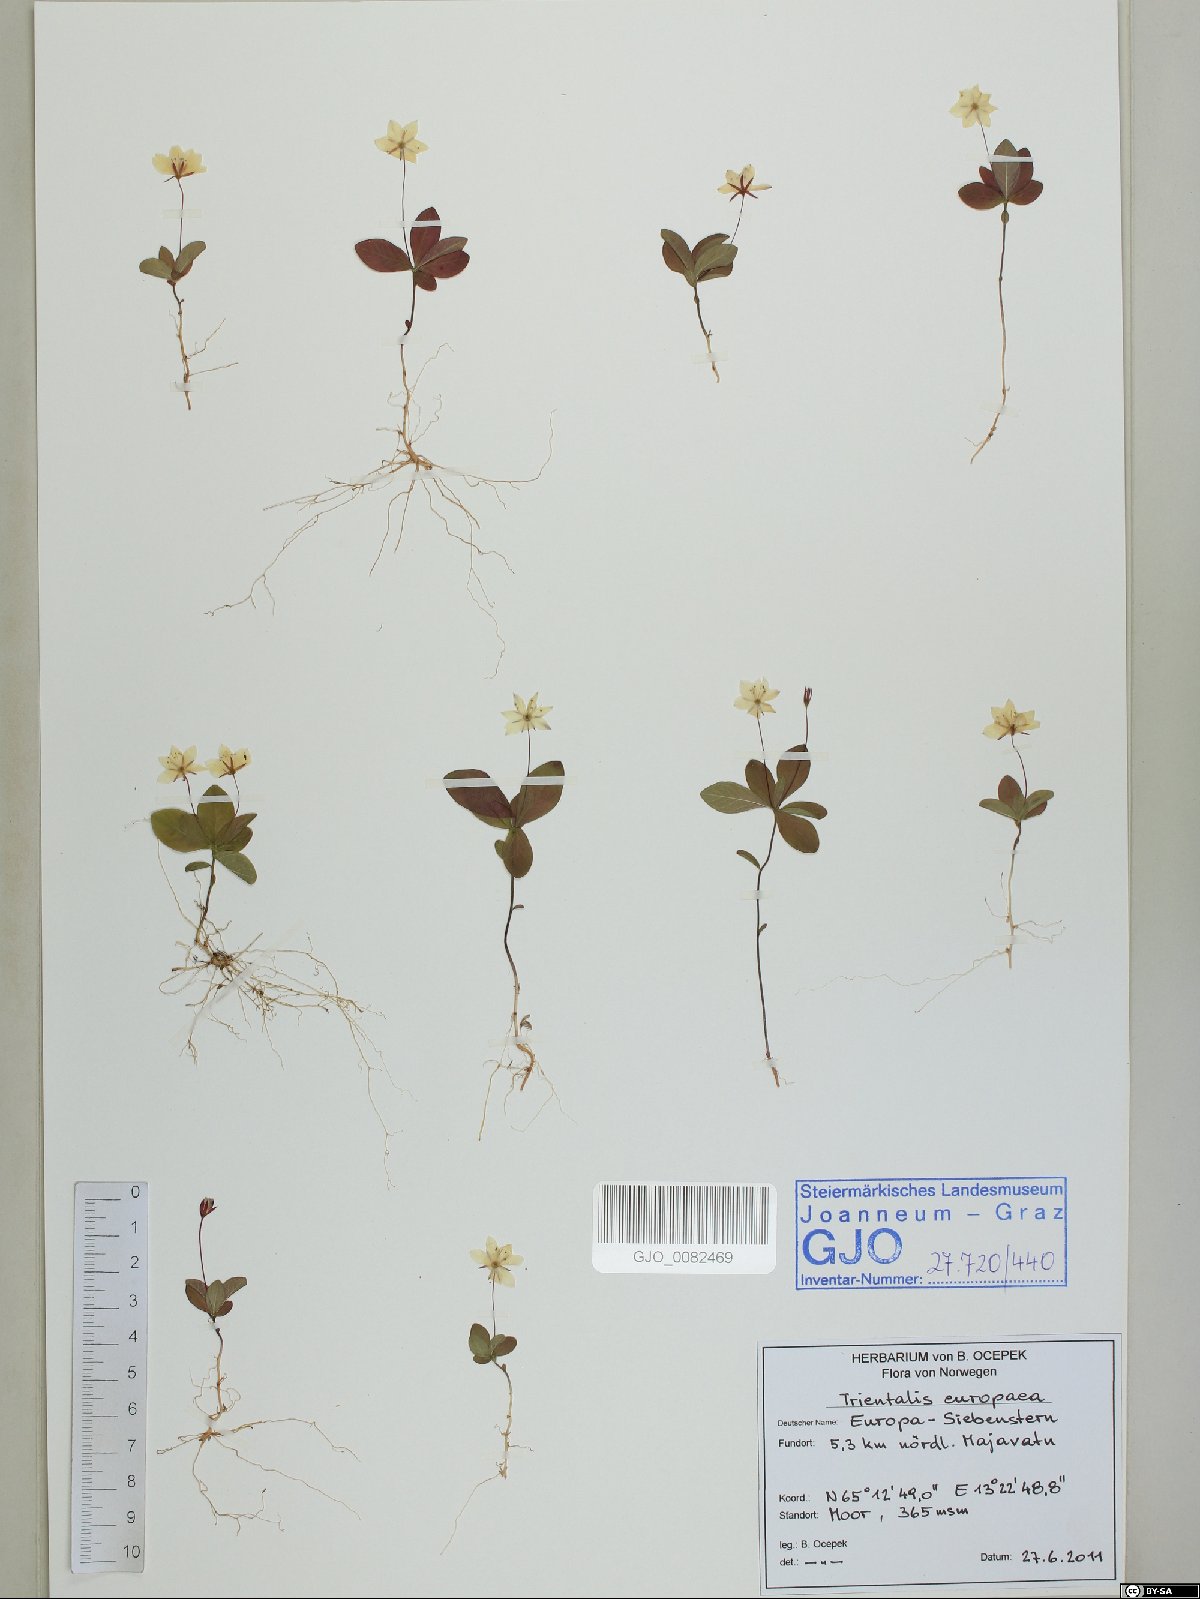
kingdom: Plantae
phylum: Tracheophyta
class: Magnoliopsida
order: Ericales
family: Primulaceae
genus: Lysimachia
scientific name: Lysimachia europaea
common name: Arctic starflower
